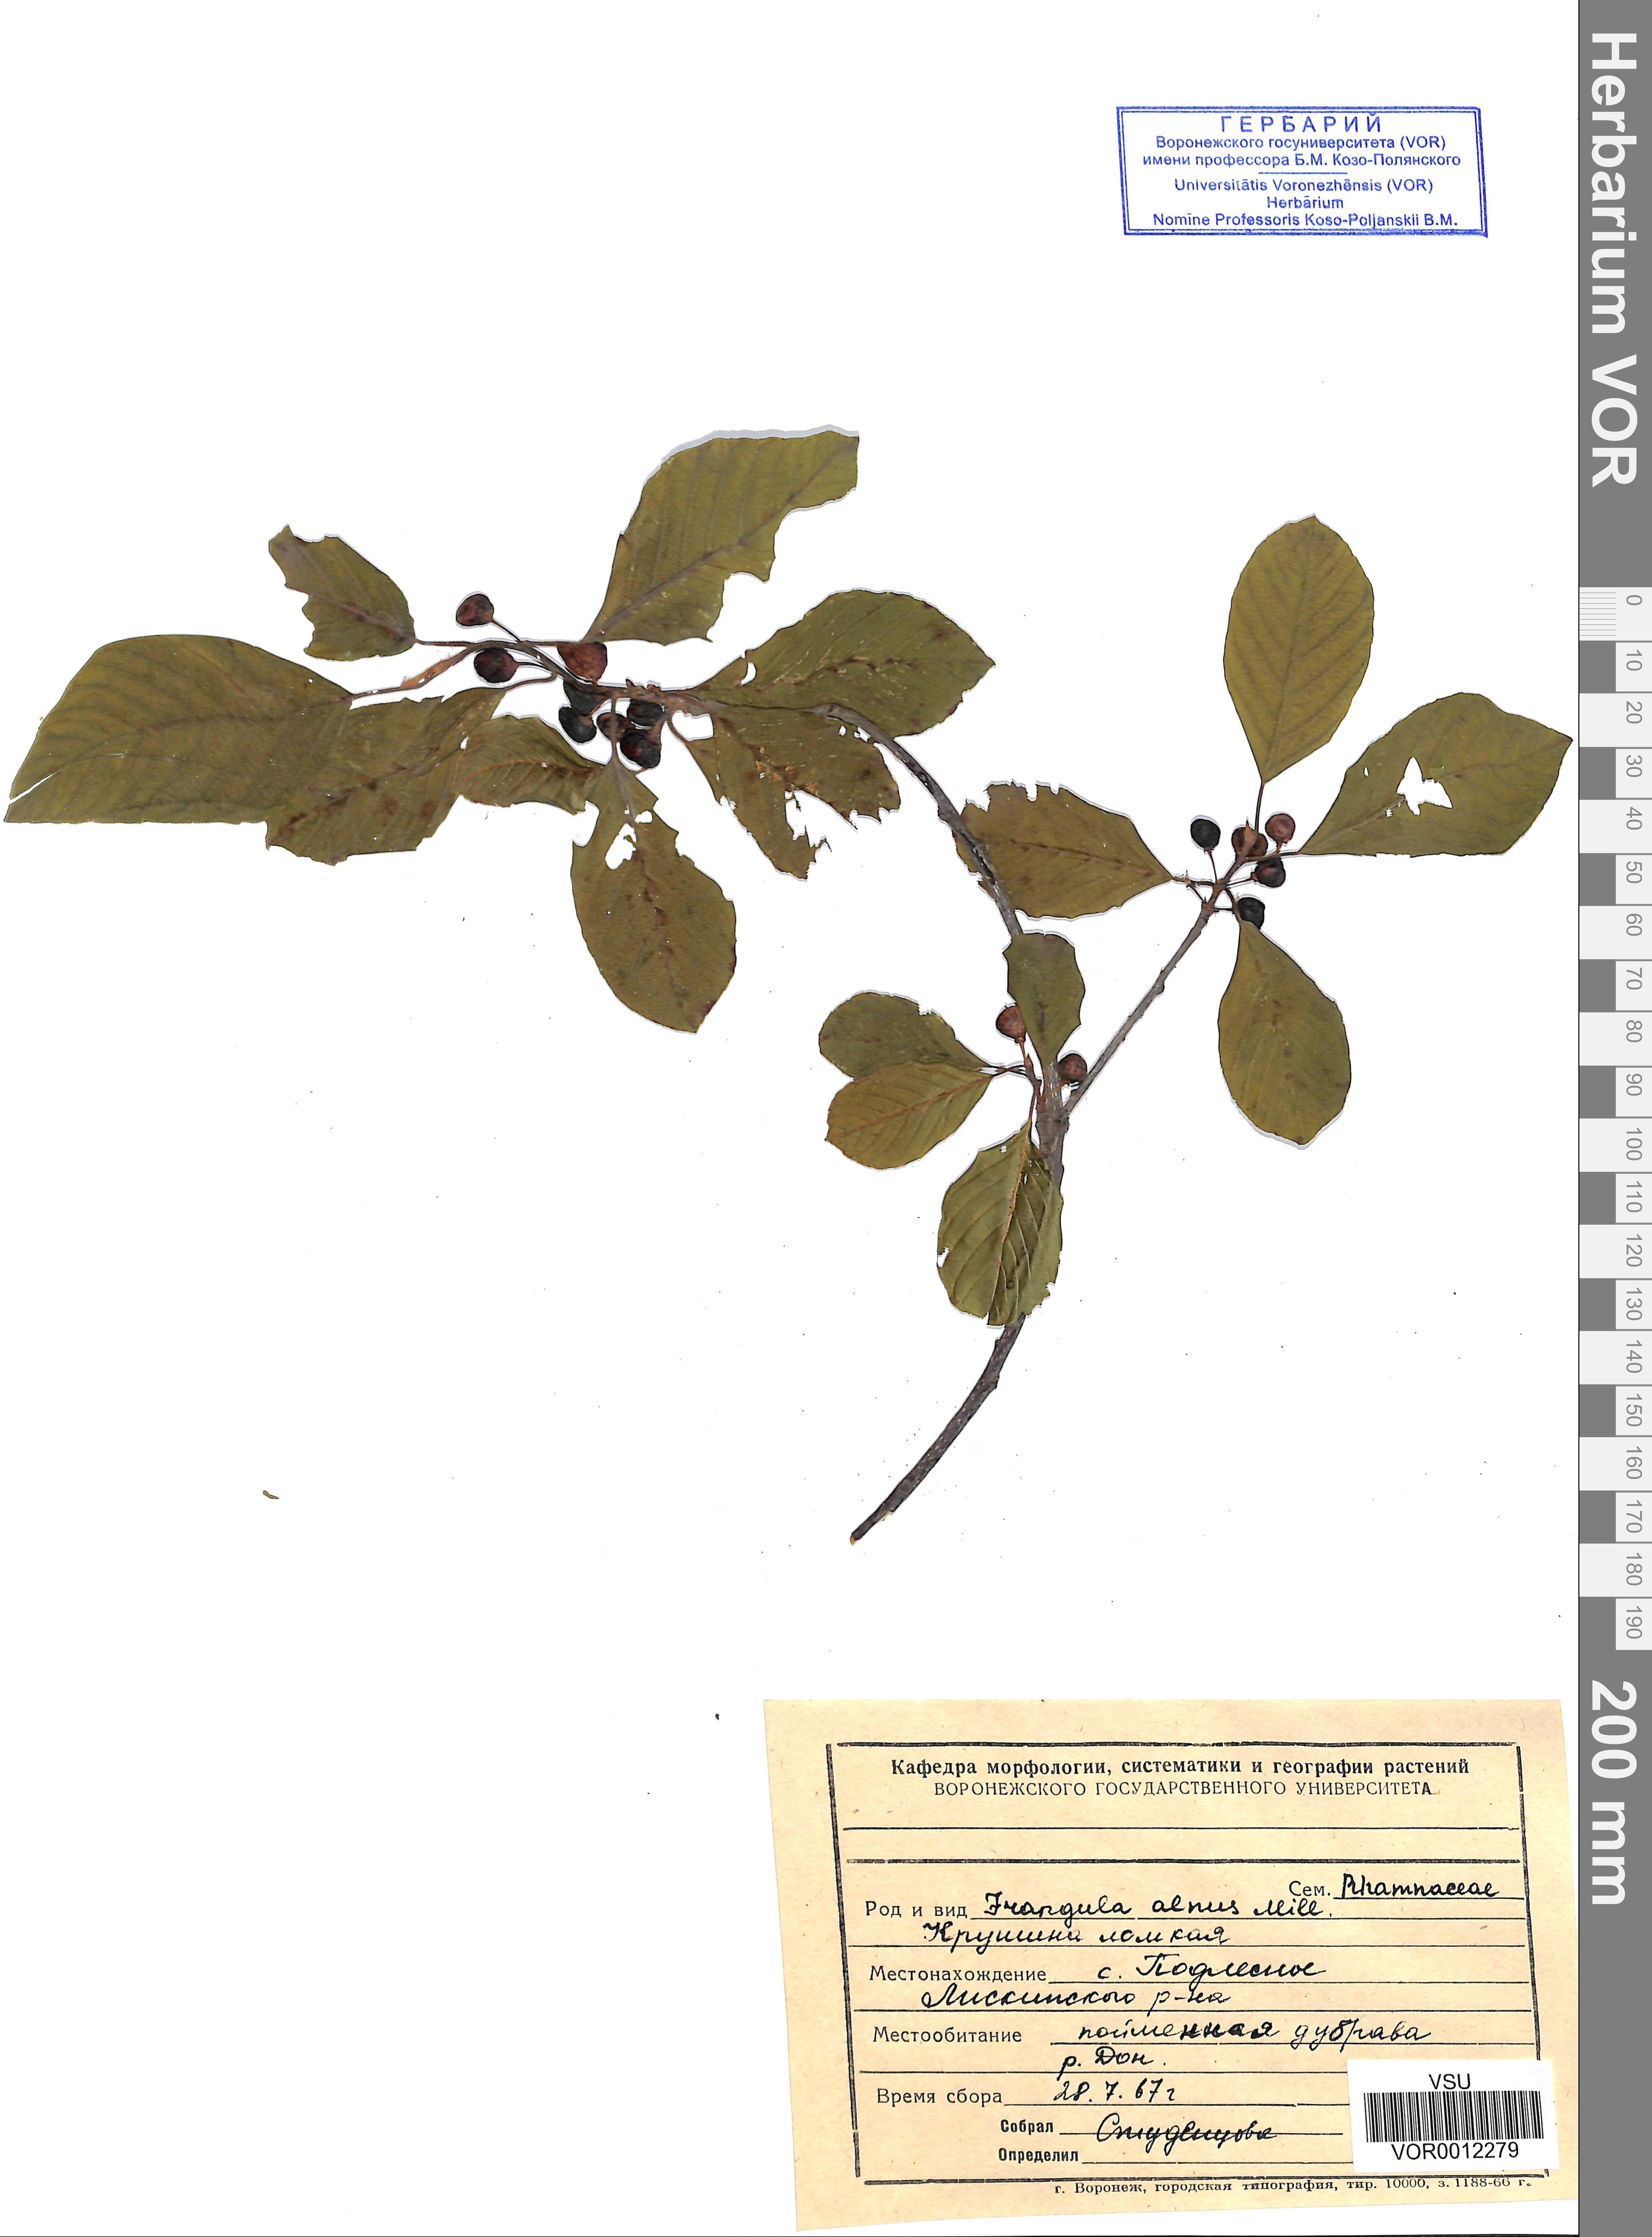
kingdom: Plantae
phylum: Tracheophyta
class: Magnoliopsida
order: Rosales
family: Rhamnaceae
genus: Frangula
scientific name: Frangula alnus
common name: Alder buckthorn
